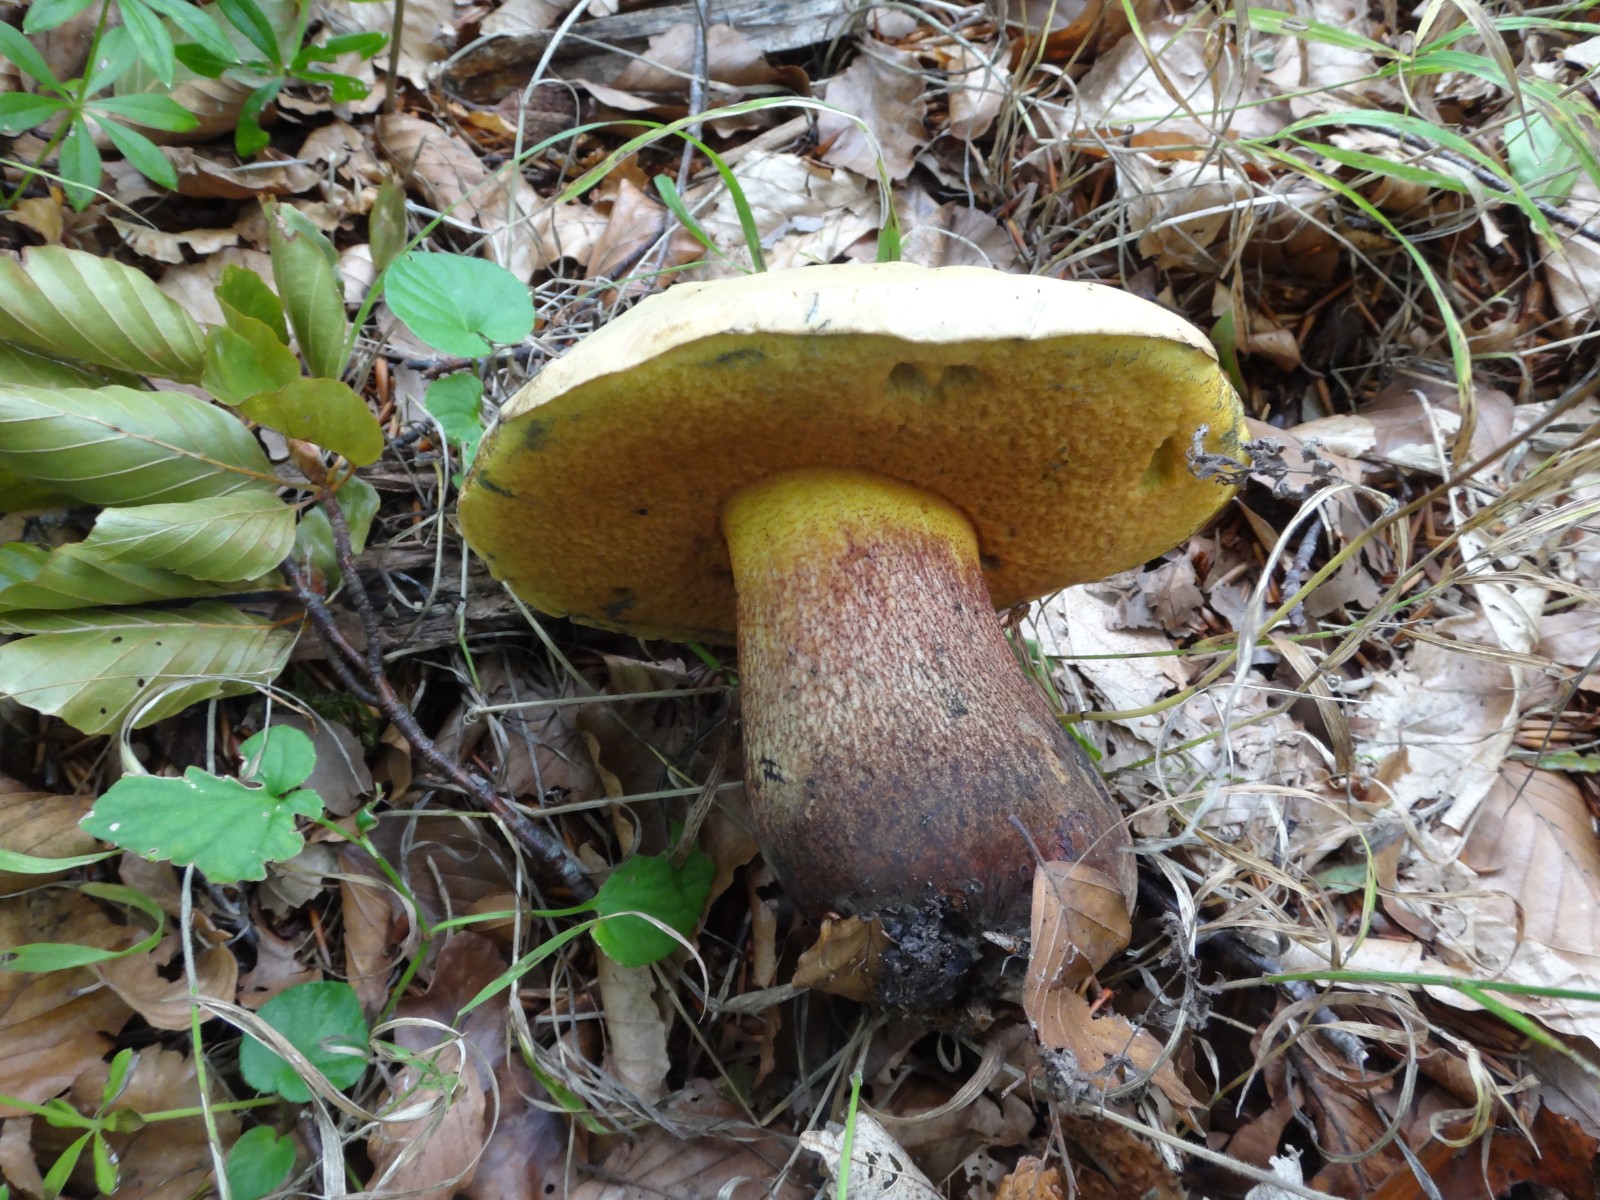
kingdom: Fungi
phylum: Basidiomycota
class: Agaricomycetes
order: Boletales
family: Boletaceae
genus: Suillellus
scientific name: Suillellus luridus
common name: netstokket indigorørhat
